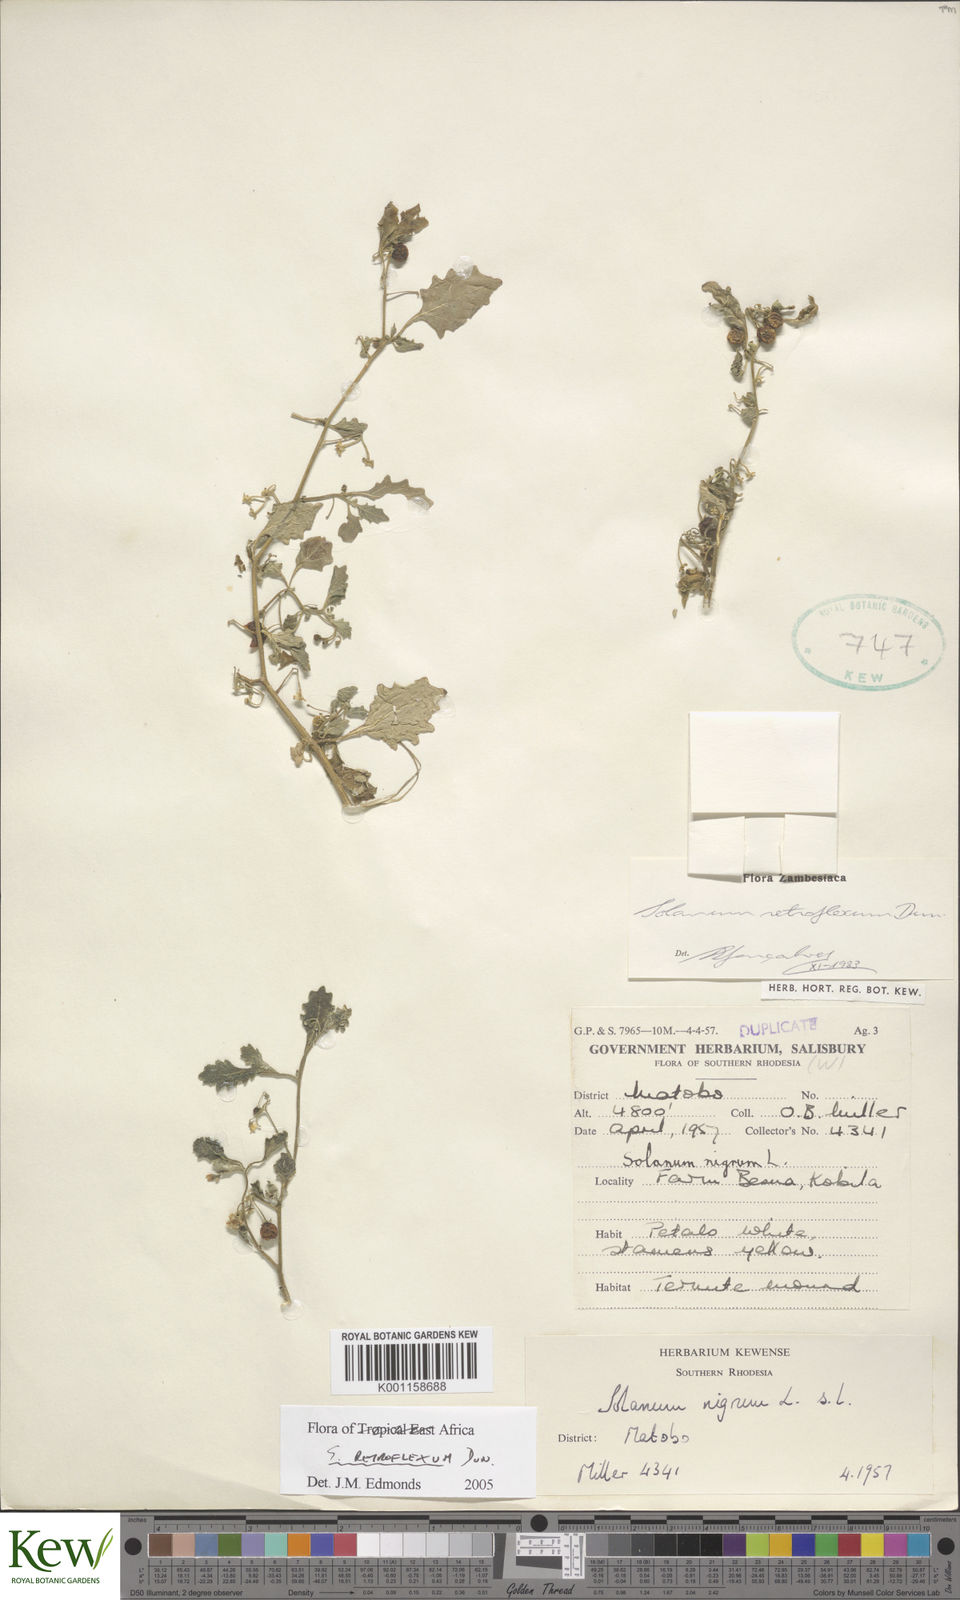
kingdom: Plantae
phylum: Tracheophyta
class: Magnoliopsida
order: Solanales
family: Solanaceae
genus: Solanum
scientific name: Solanum retroflexum
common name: Wonderberry
